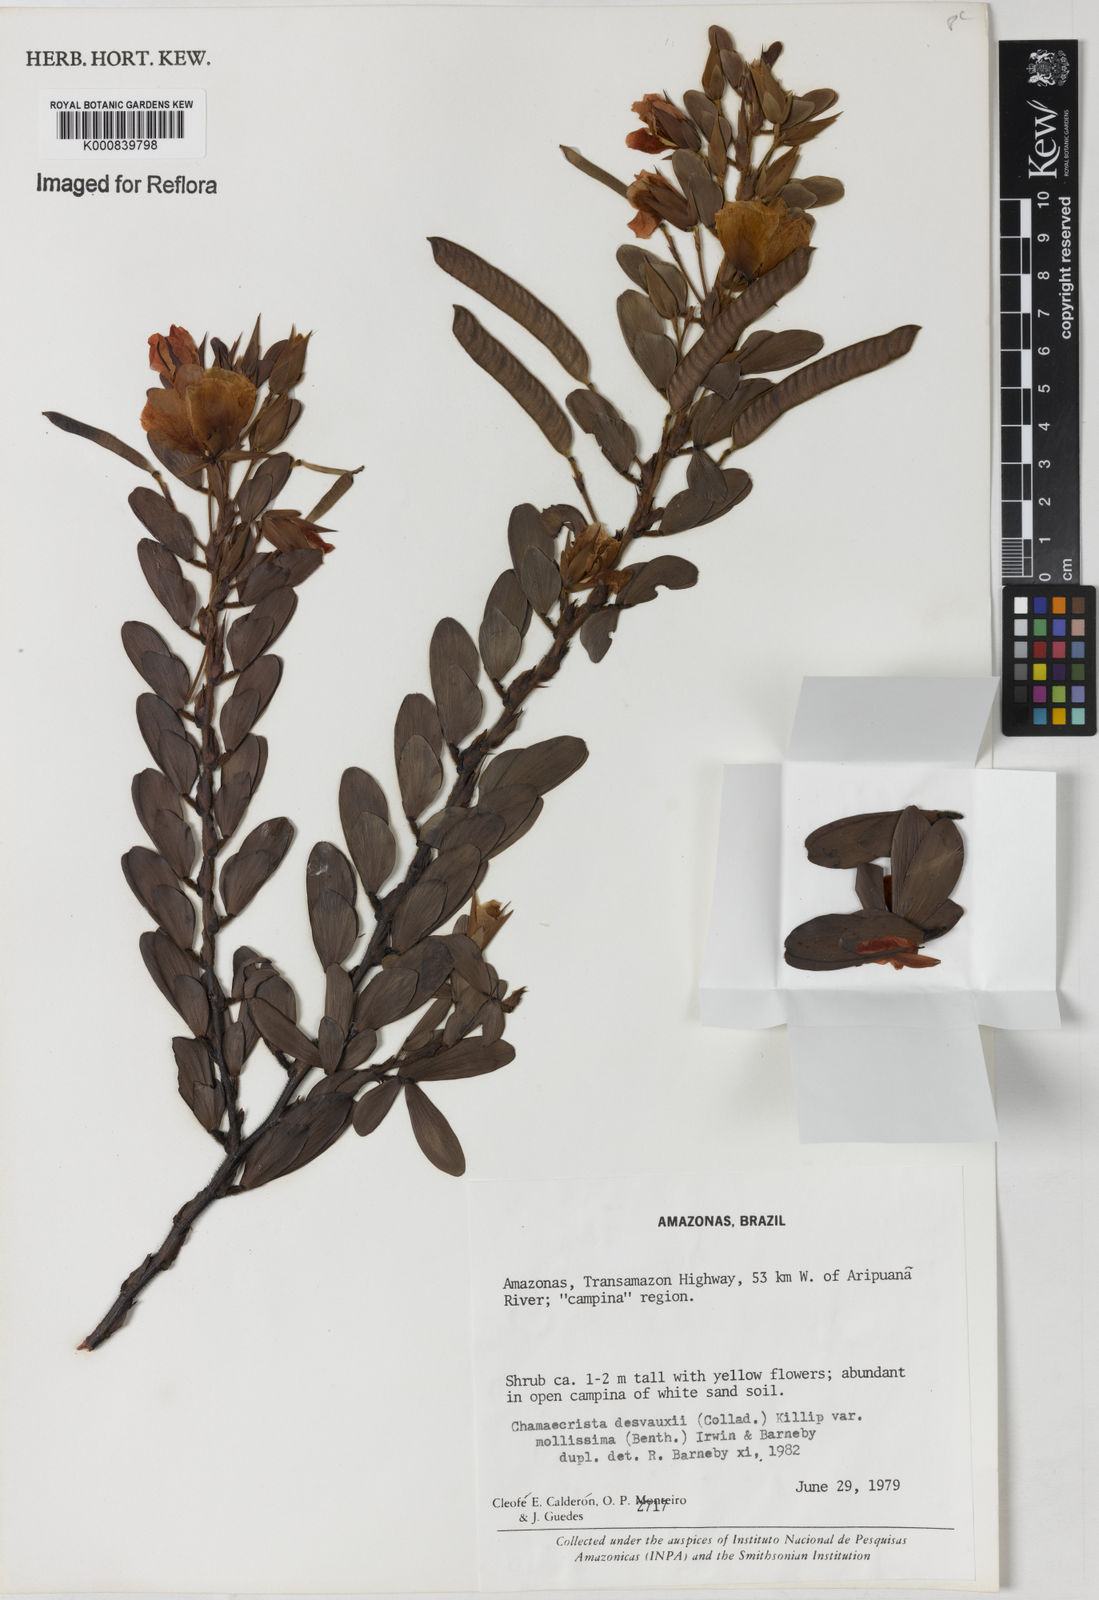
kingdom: Plantae
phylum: Tracheophyta
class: Magnoliopsida
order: Fabales
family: Fabaceae
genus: Chamaecrista
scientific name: Chamaecrista
